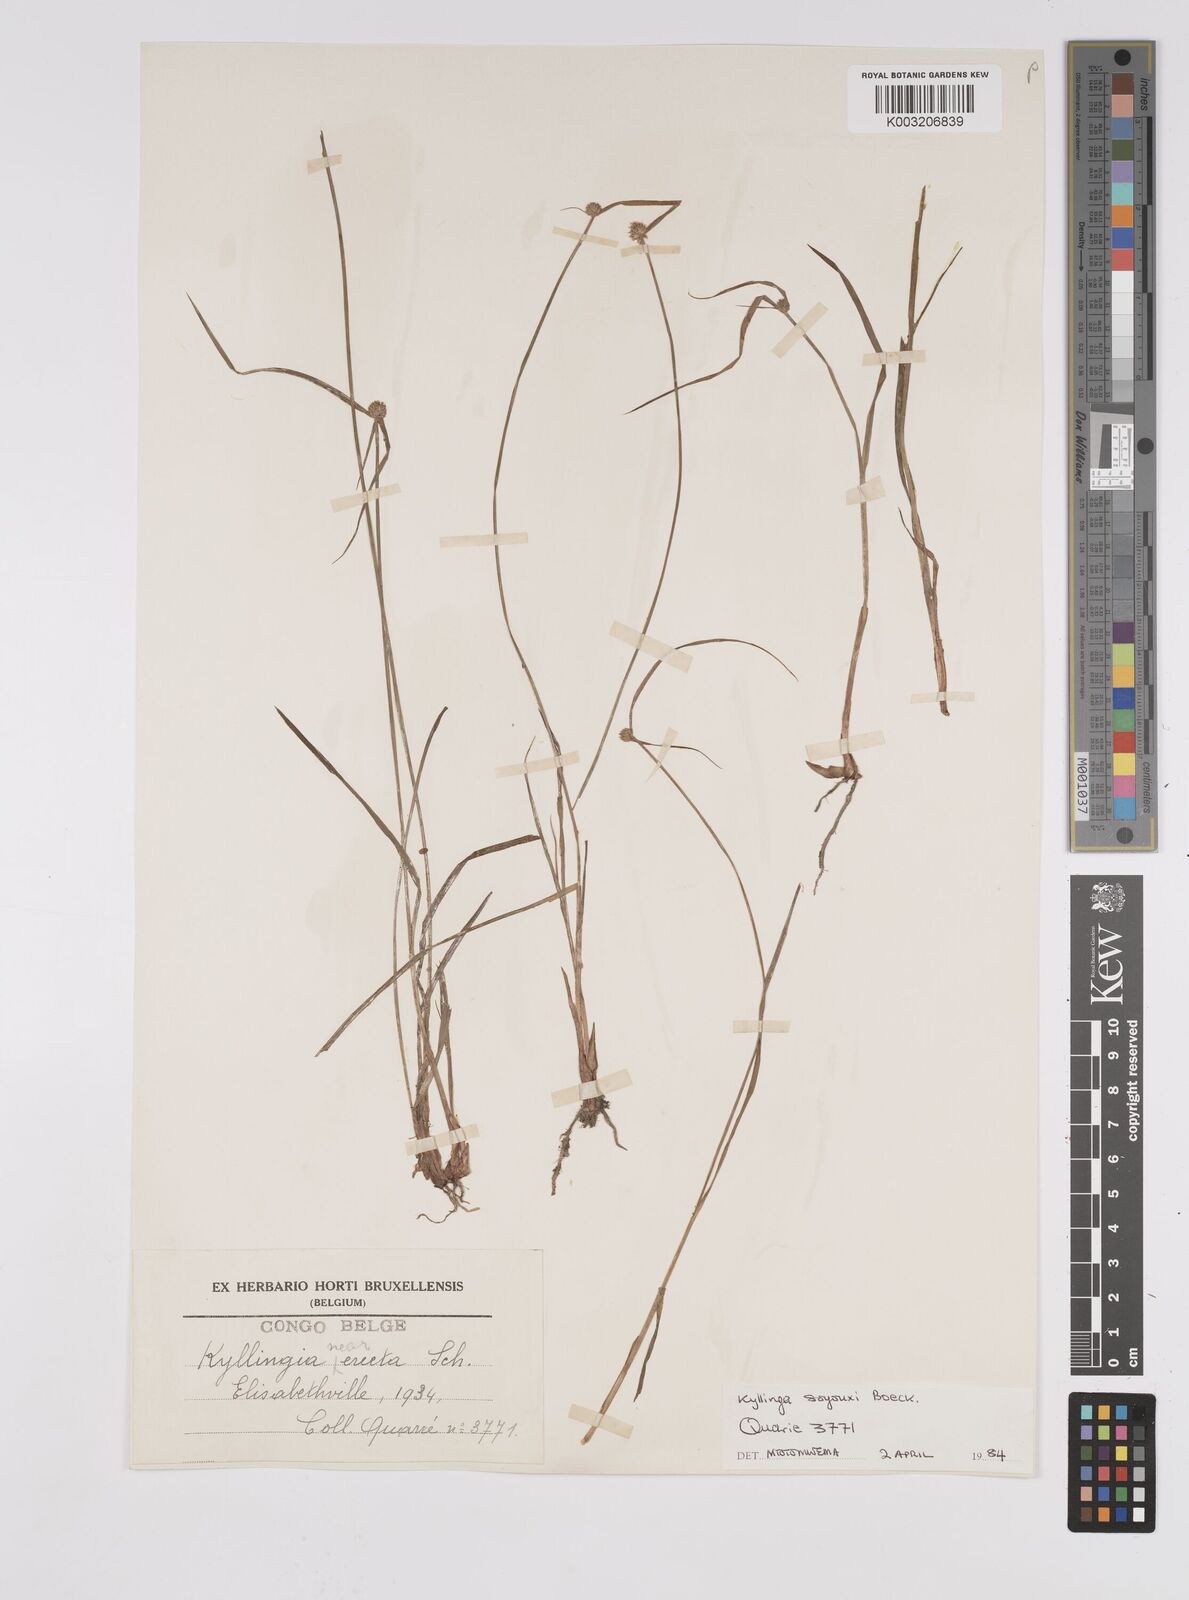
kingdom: Plantae
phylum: Tracheophyta
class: Liliopsida
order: Poales
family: Cyperaceae
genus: Cyperus
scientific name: Cyperus erectus
